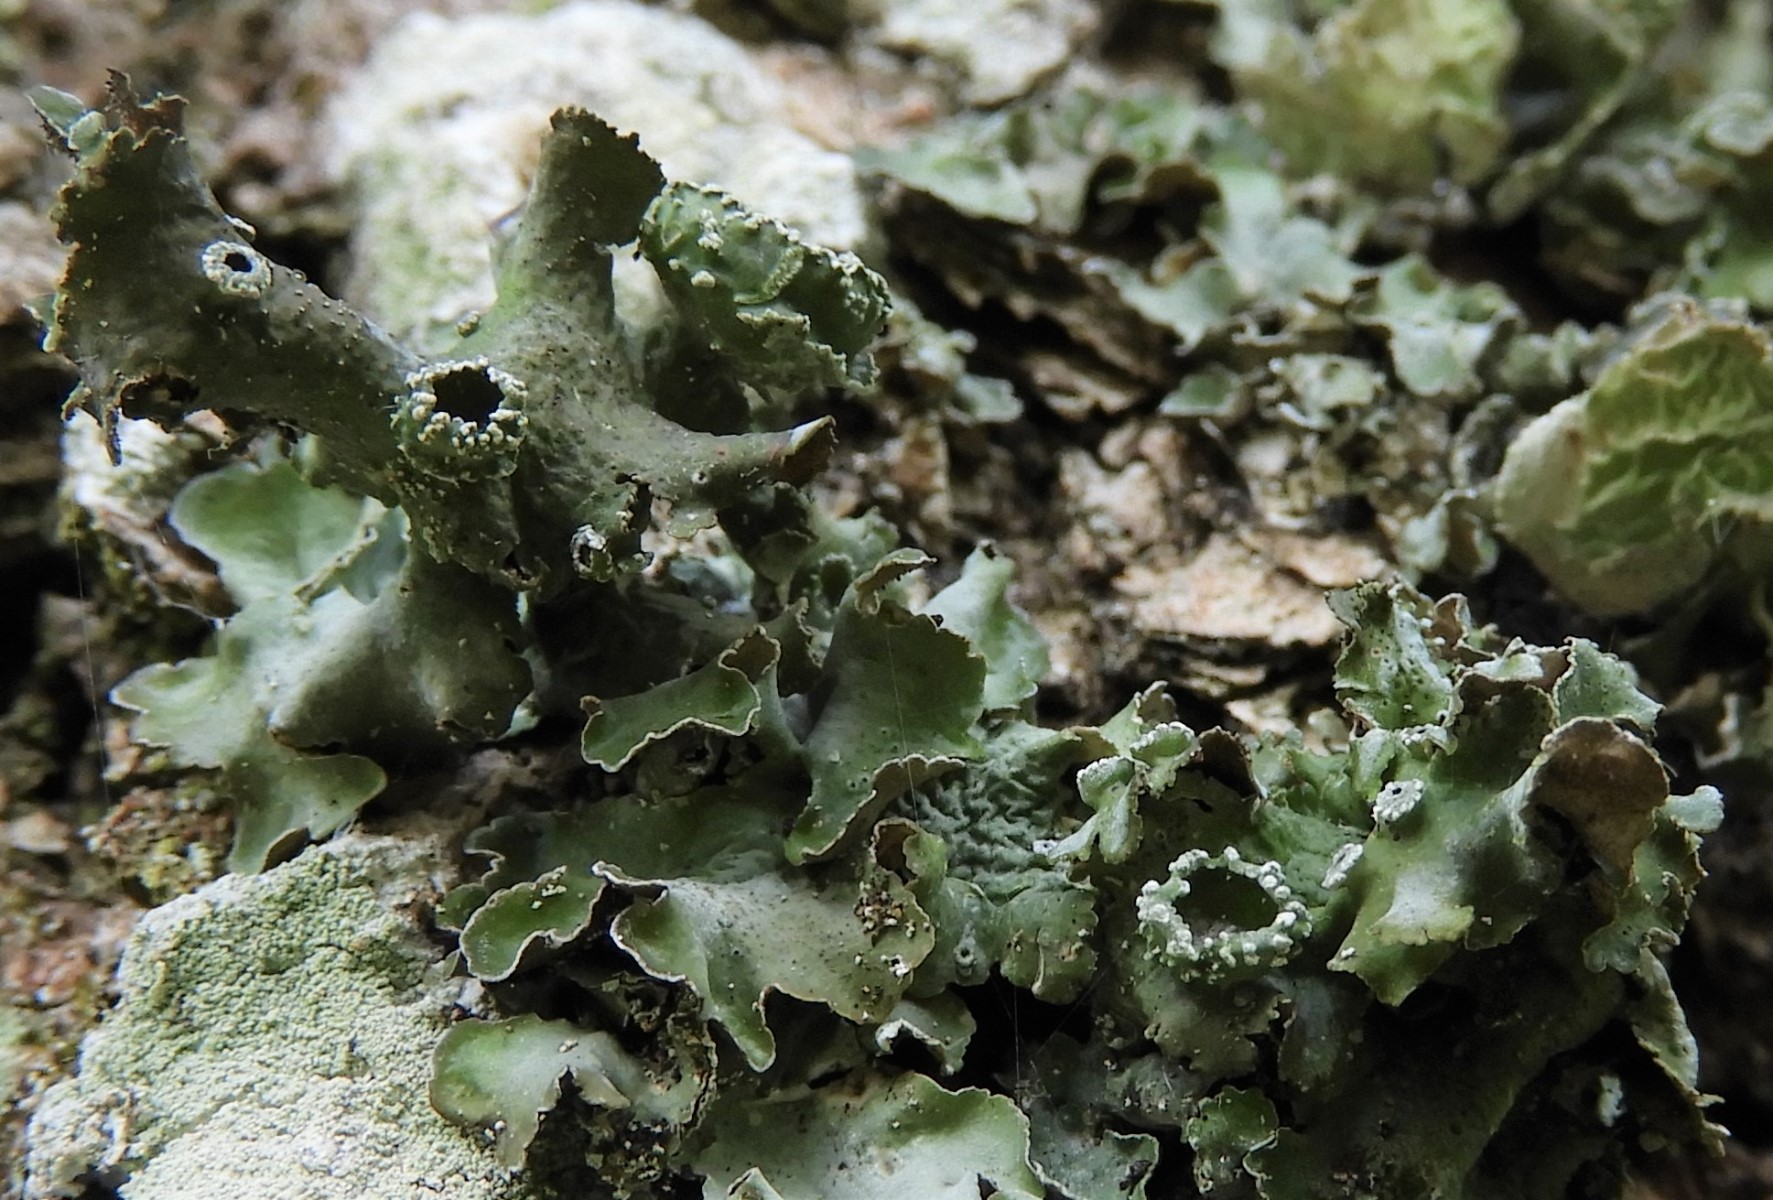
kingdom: Fungi
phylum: Ascomycota
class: Lecanoromycetes
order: Lecanorales
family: Parmeliaceae
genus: Pleurosticta
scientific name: Pleurosticta acetabulum
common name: stor skållav
